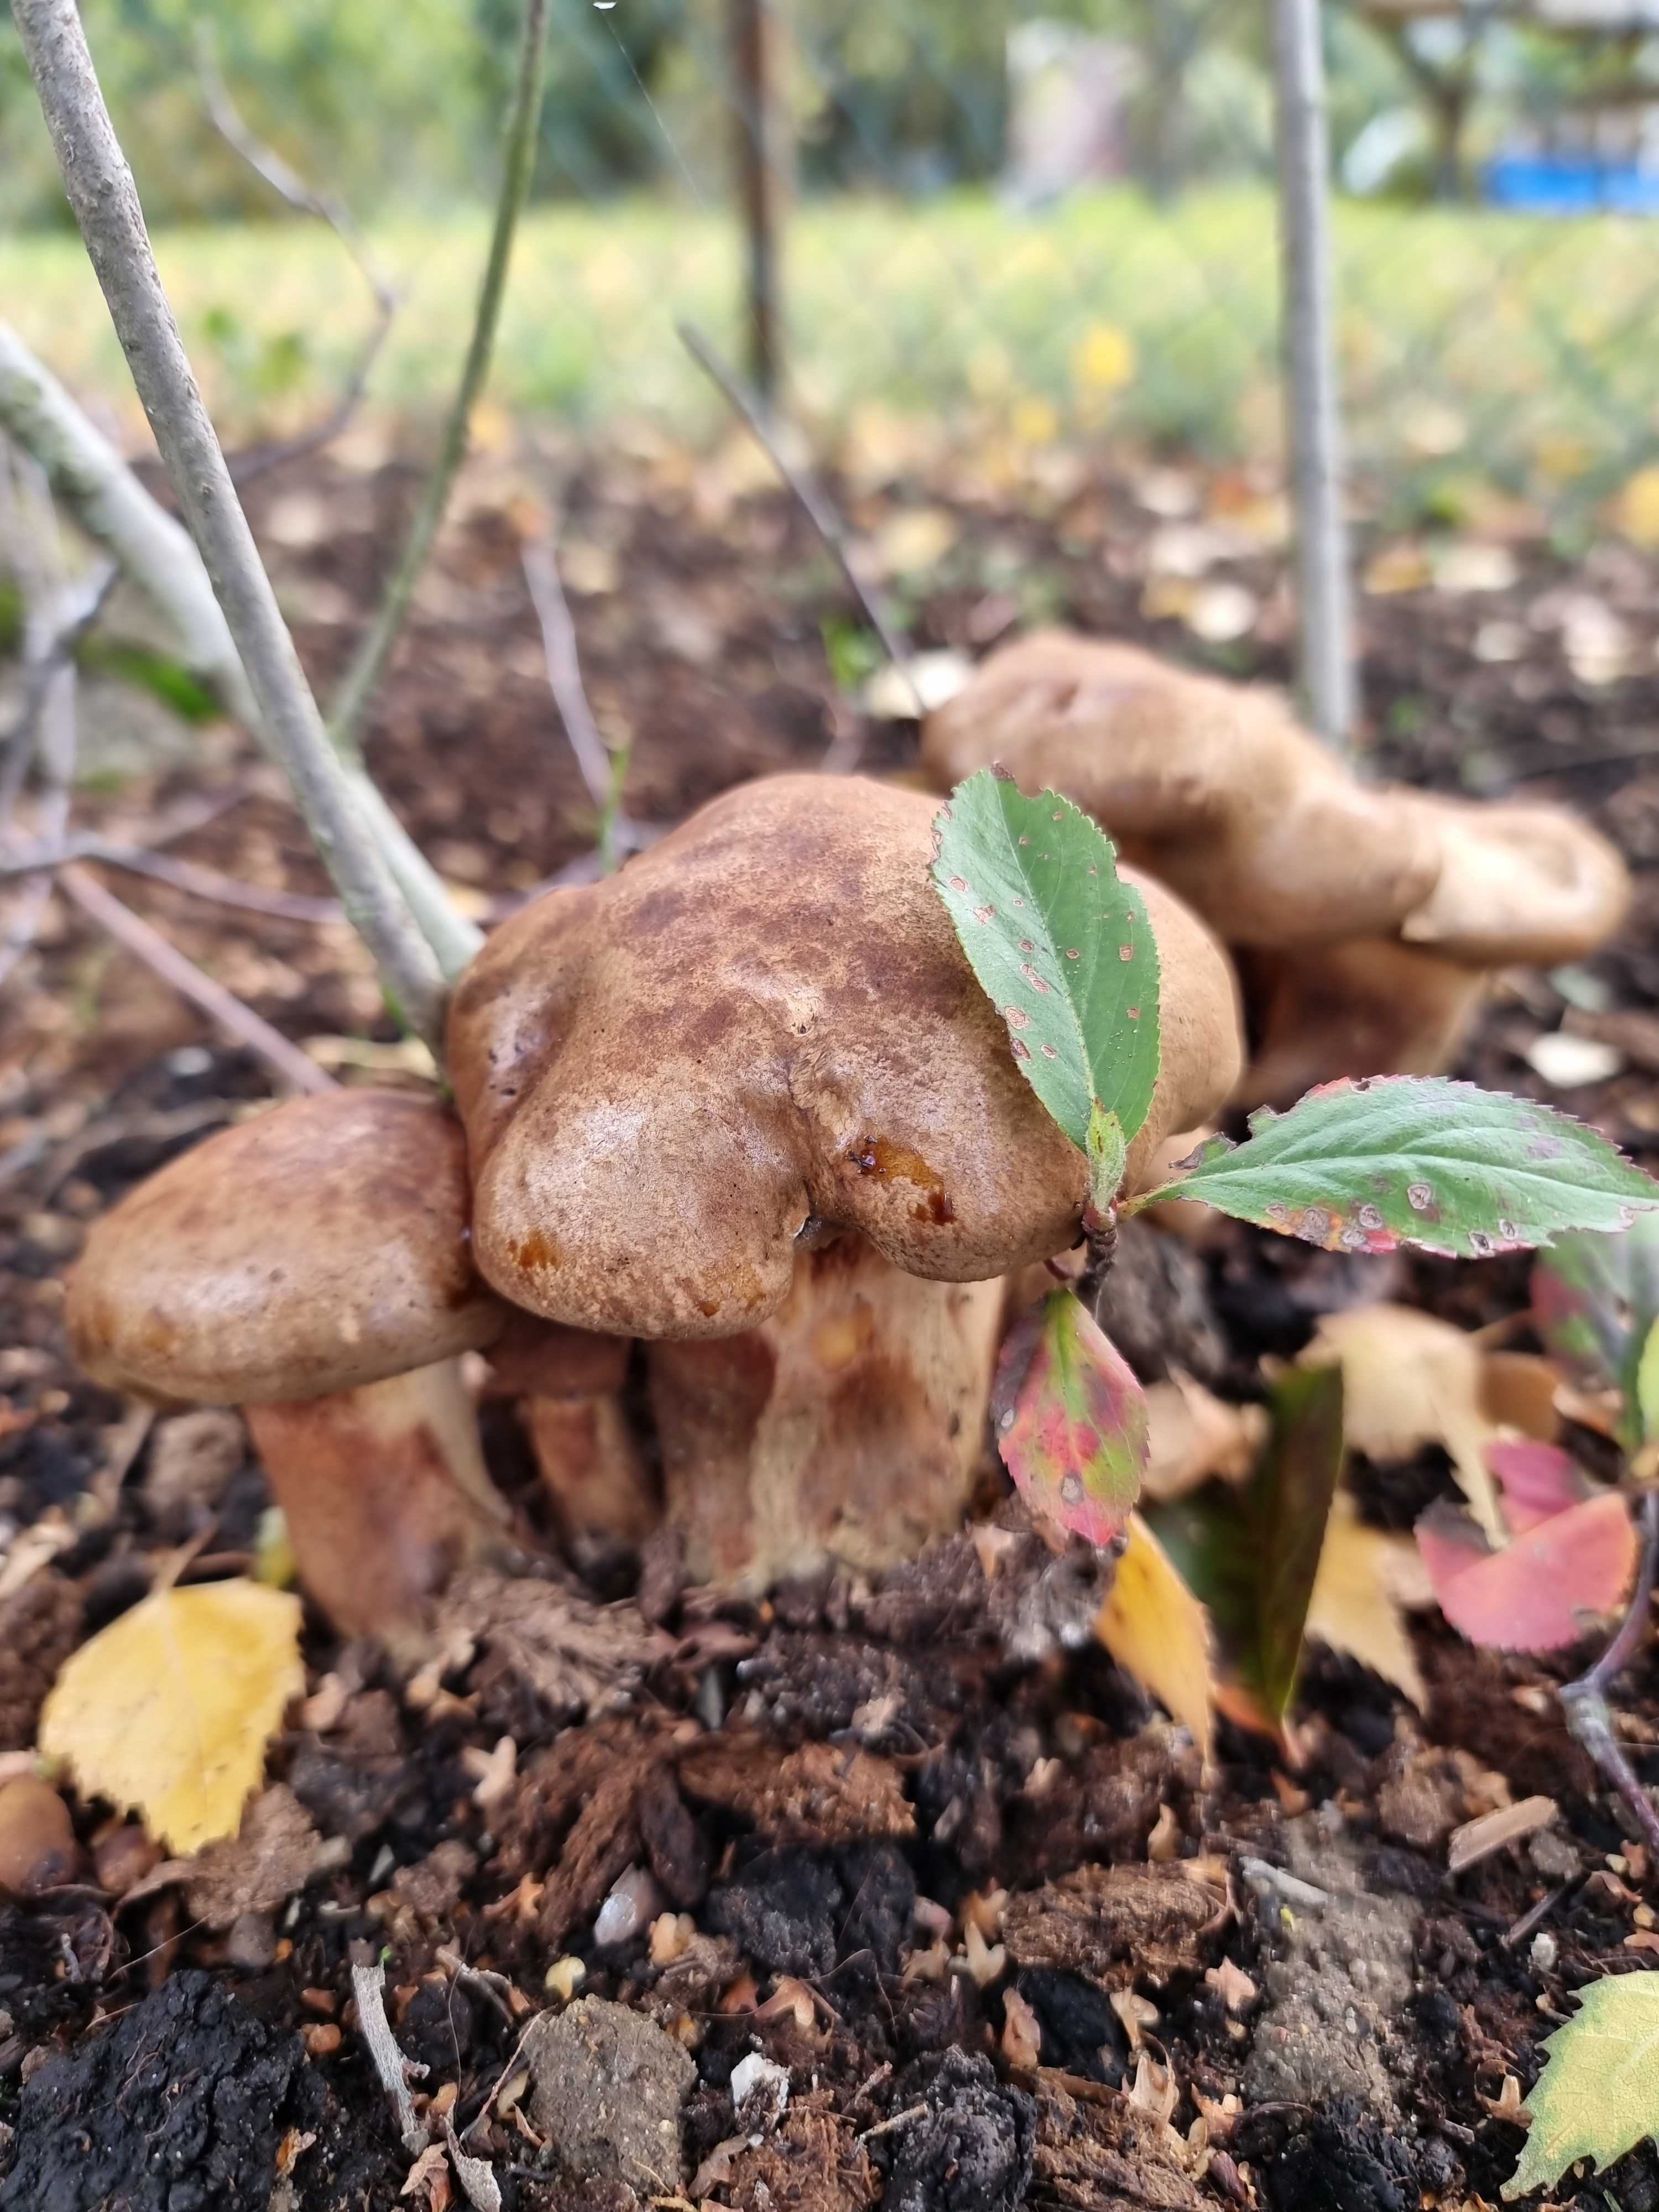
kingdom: Fungi
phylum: Basidiomycota
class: Agaricomycetes
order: Boletales
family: Paxillaceae
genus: Paxillus
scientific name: Paxillus
